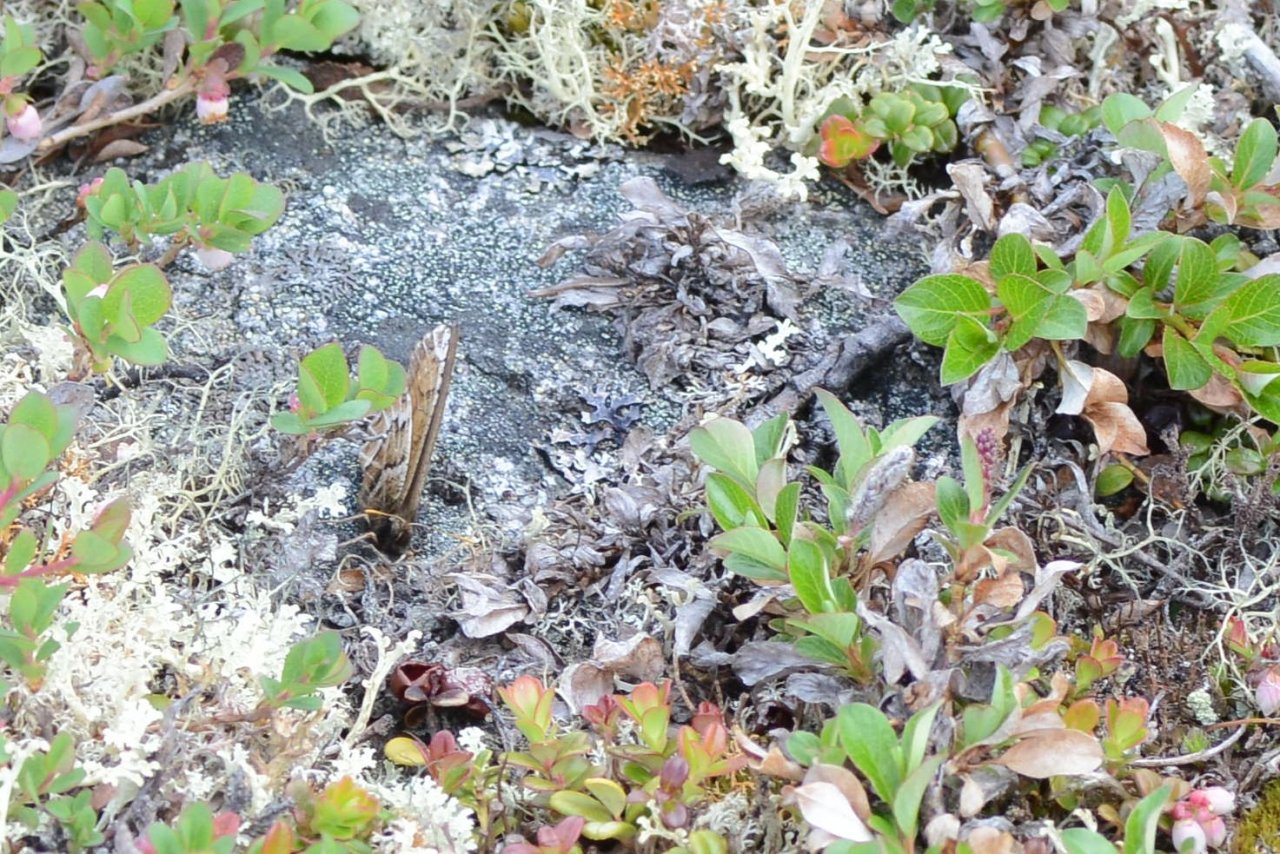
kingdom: Animalia
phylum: Arthropoda
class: Insecta
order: Lepidoptera
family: Nymphalidae
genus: Oeneis
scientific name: Oeneis bore
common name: White-veined Arctic
